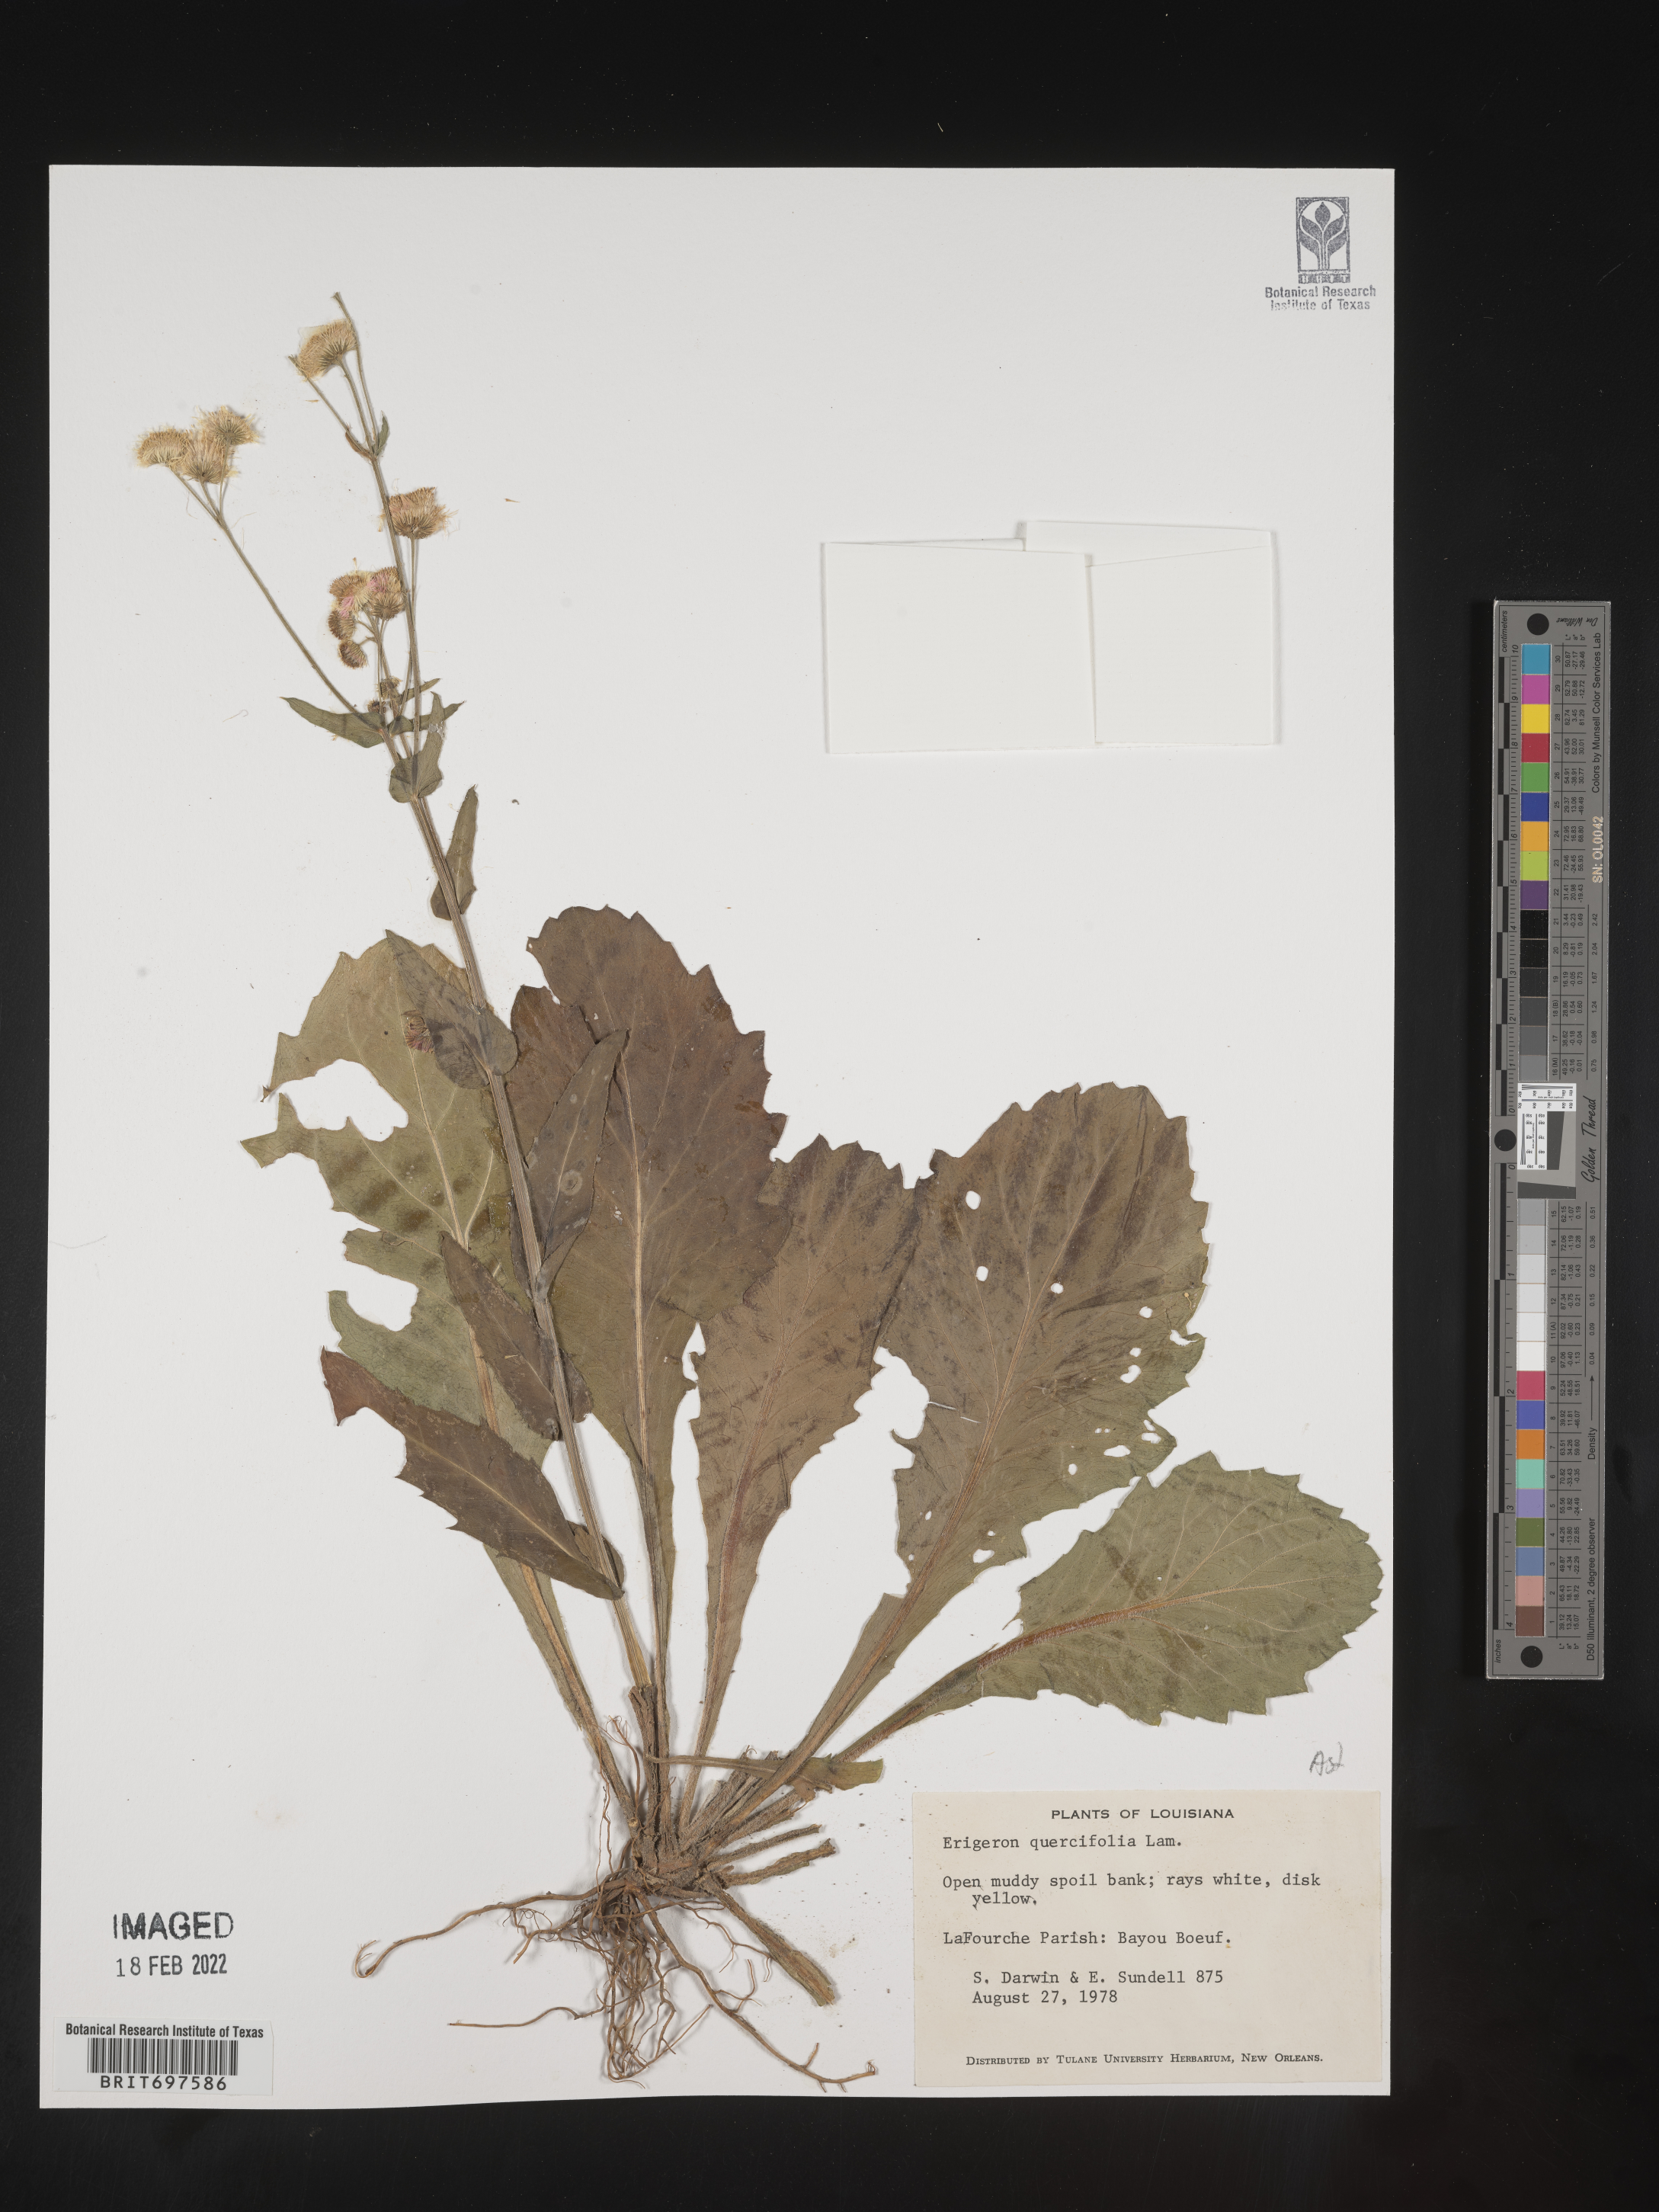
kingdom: Plantae
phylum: Tracheophyta
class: Magnoliopsida
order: Asterales
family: Asteraceae
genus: Erigeron
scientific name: Erigeron philadelphicus
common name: Robin's-plantain
